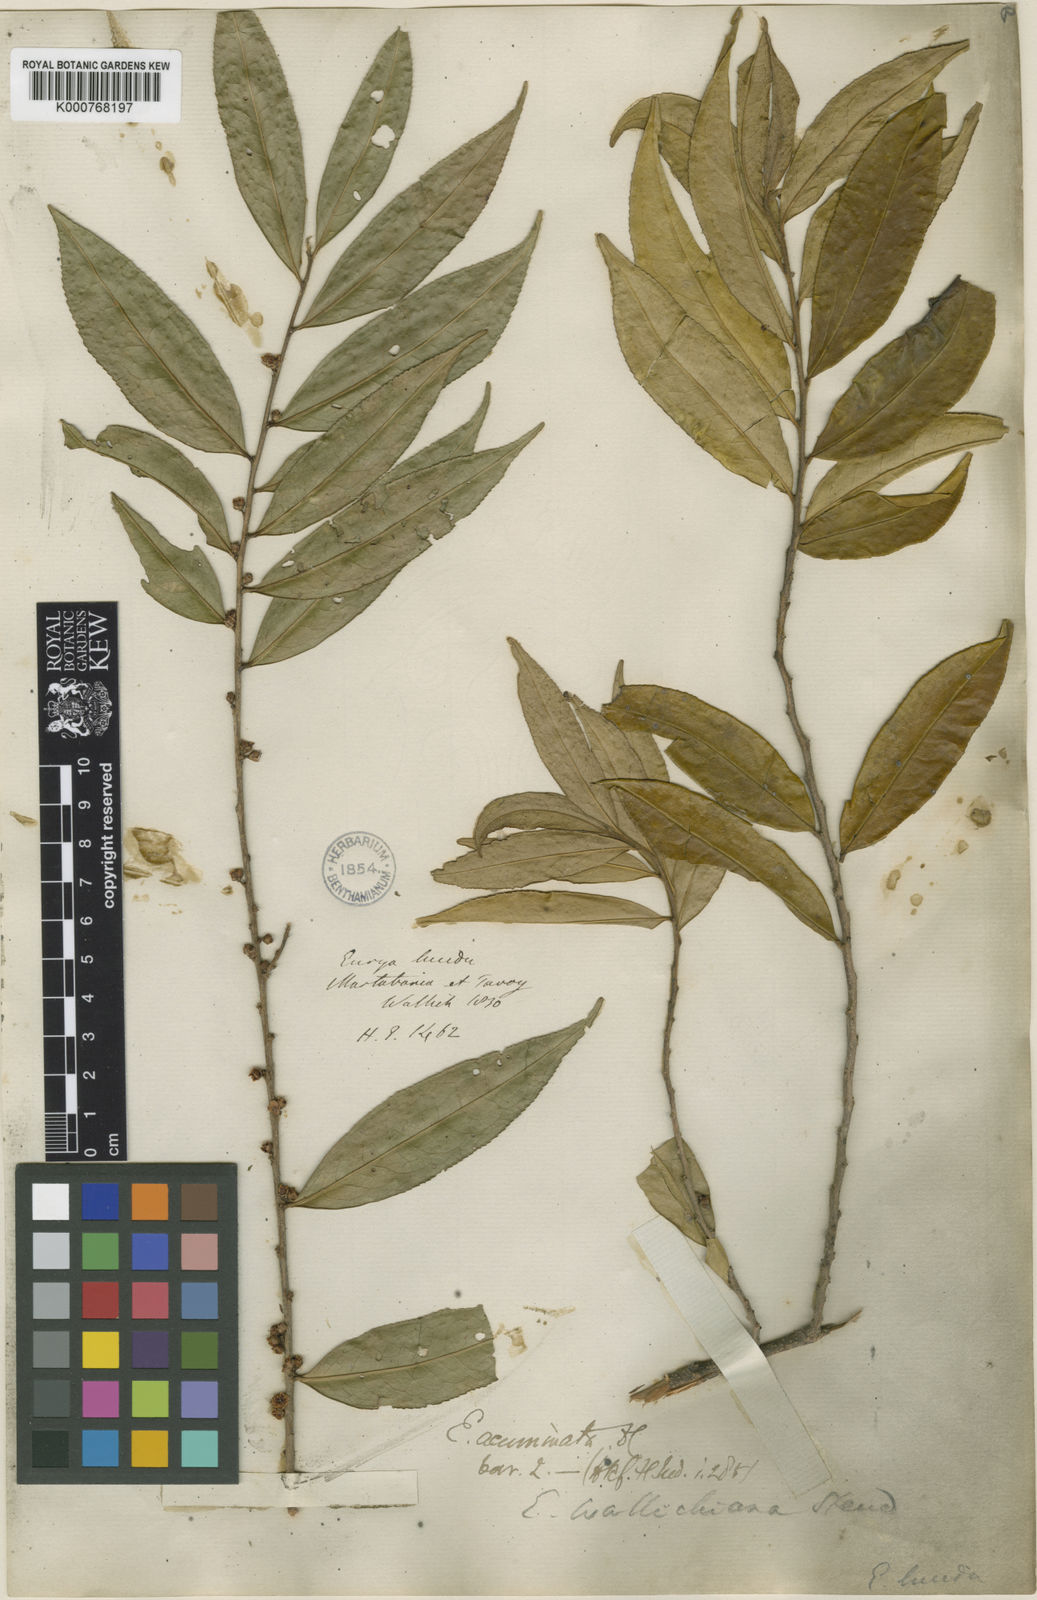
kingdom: Plantae
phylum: Tracheophyta
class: Magnoliopsida
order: Ericales
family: Pentaphylacaceae
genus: Eurya
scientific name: Eurya acuminata
